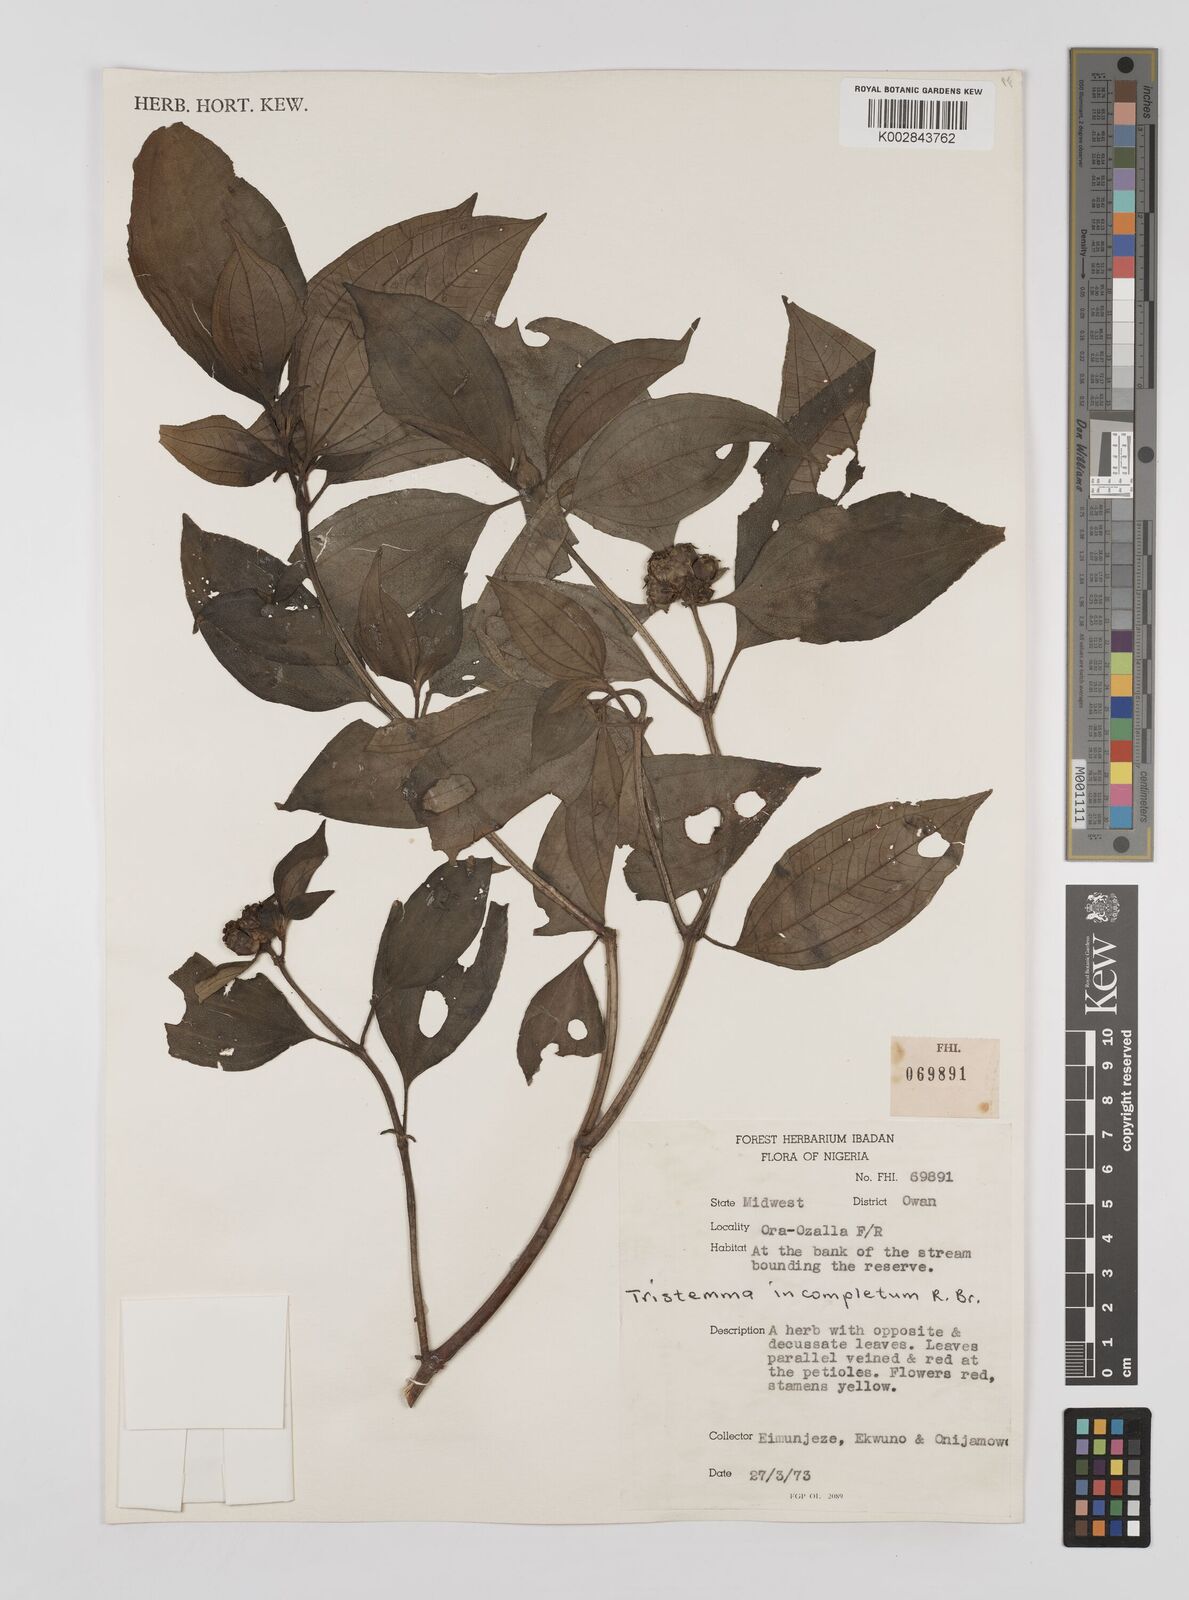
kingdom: Plantae
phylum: Tracheophyta
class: Magnoliopsida
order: Myrtales
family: Melastomataceae
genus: Tristemma
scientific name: Tristemma mauritianum
